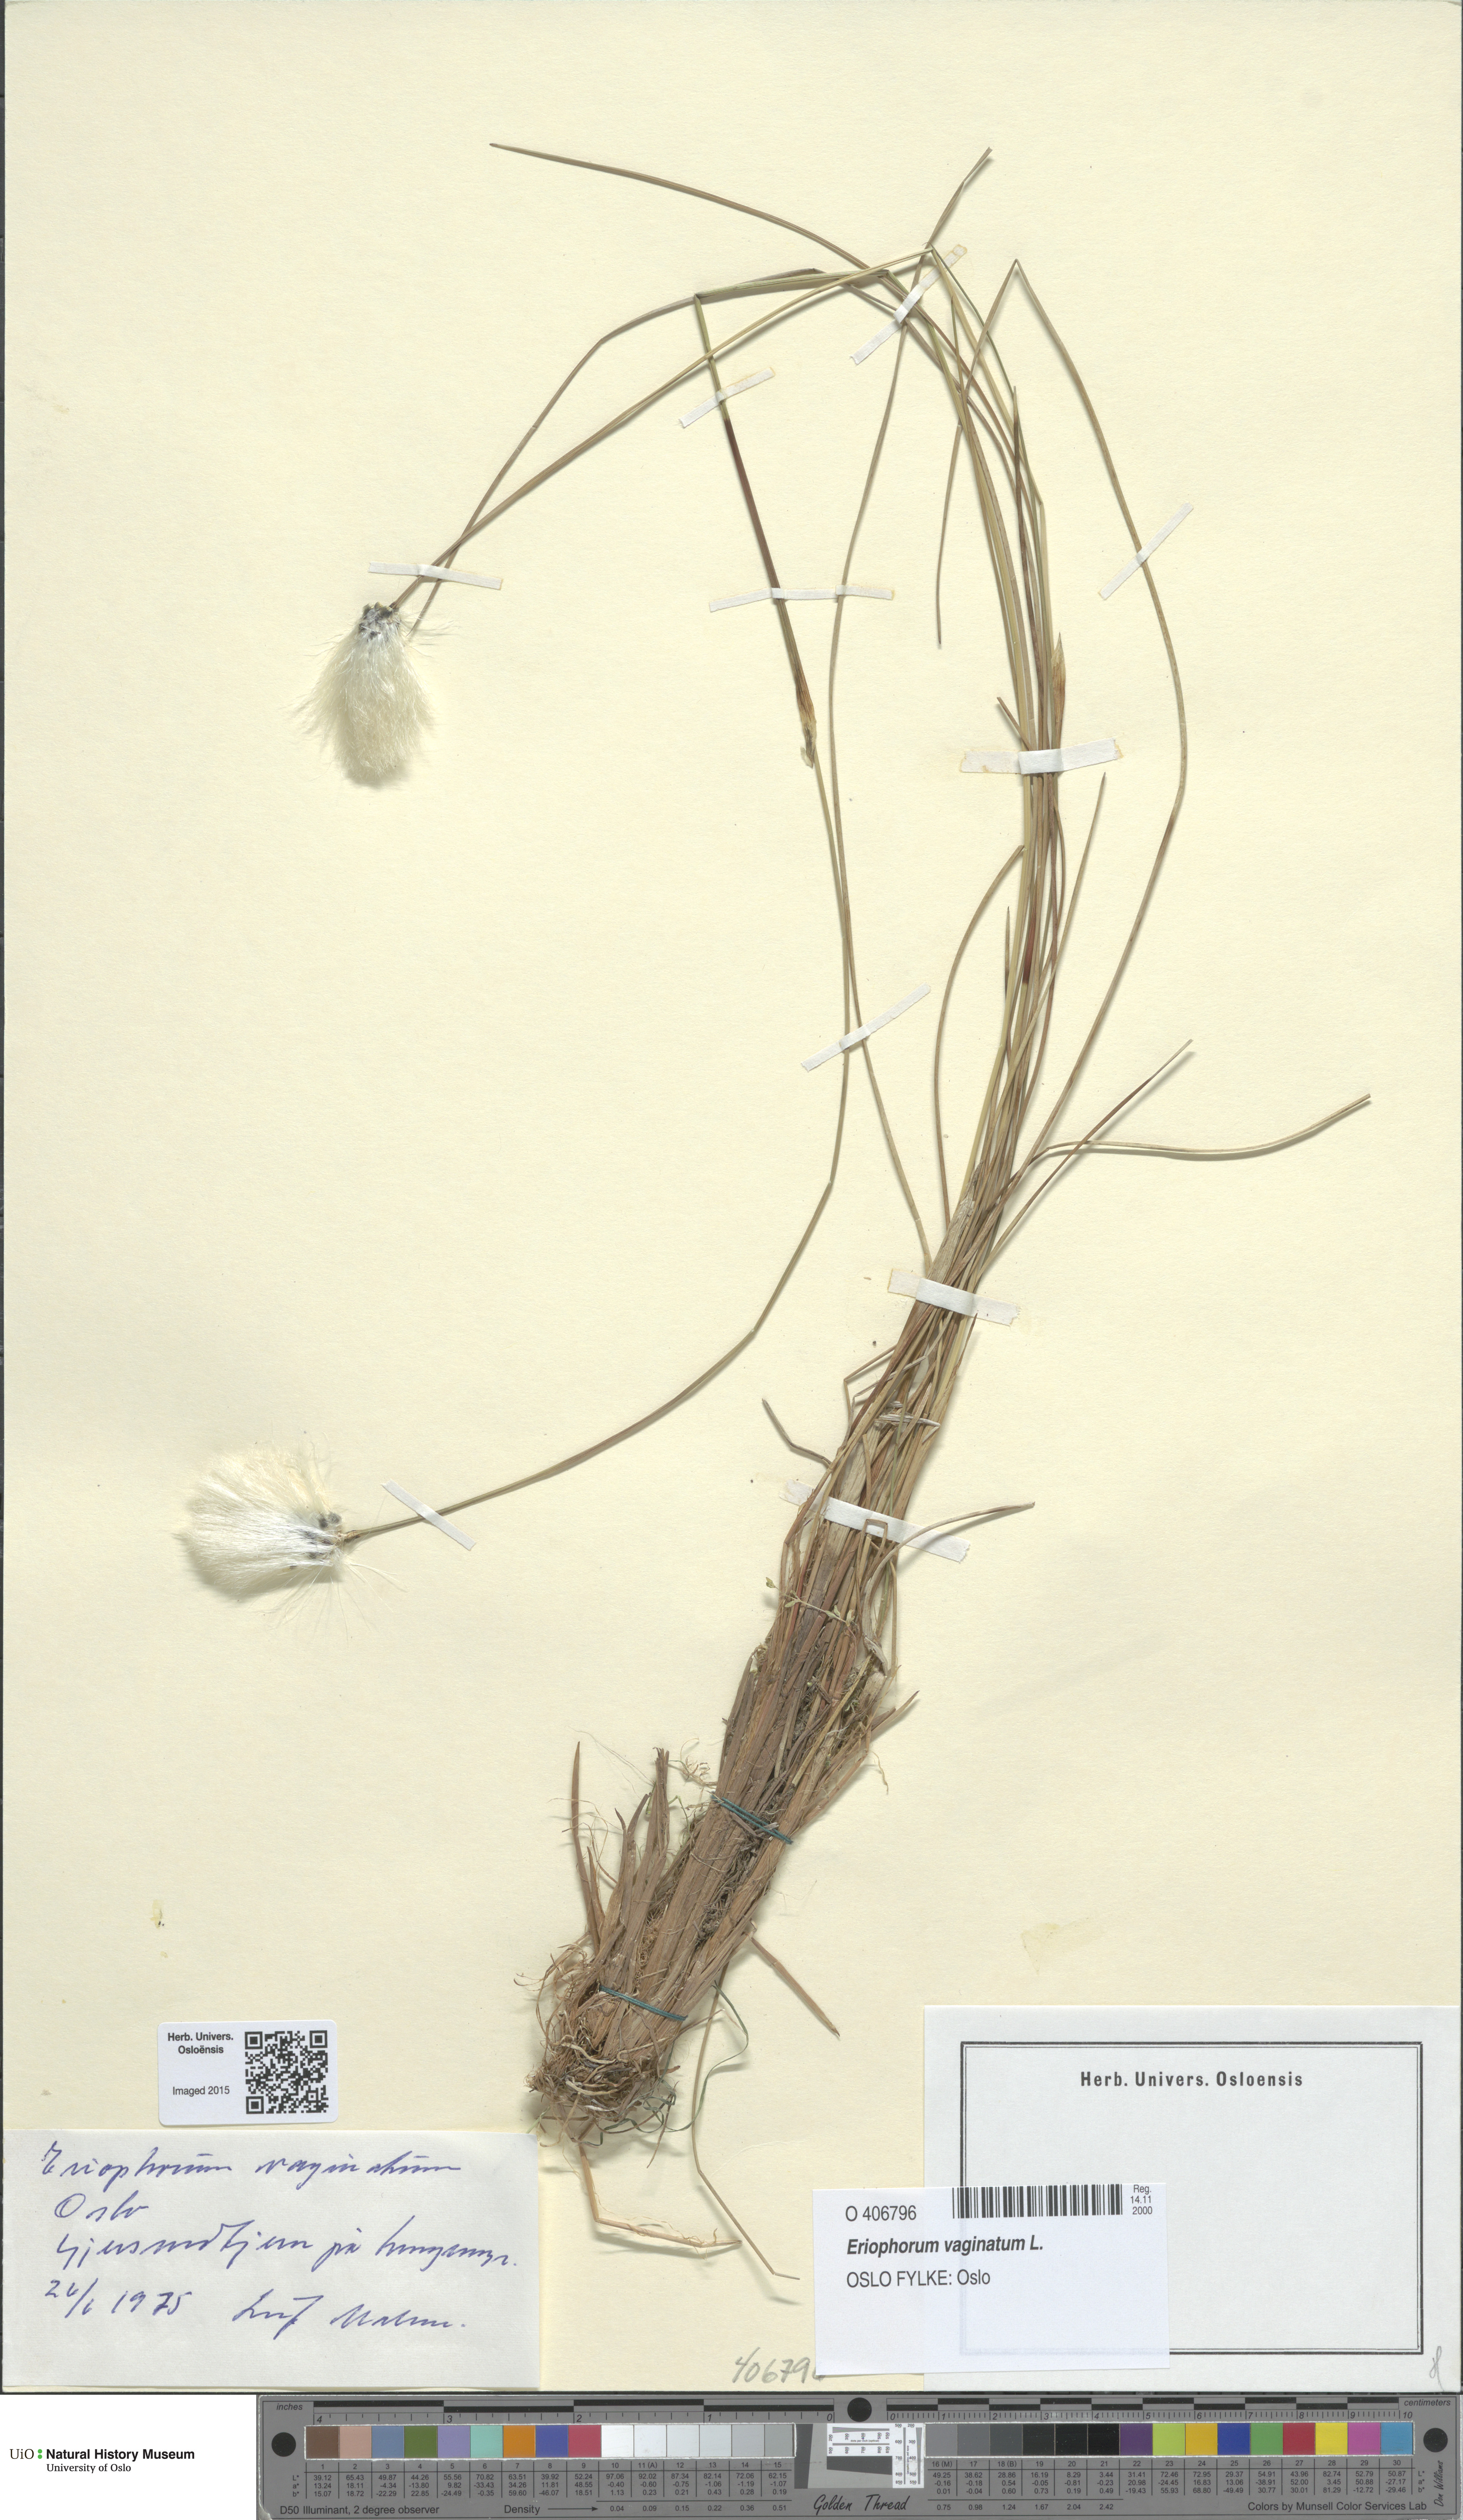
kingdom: Plantae
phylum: Tracheophyta
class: Liliopsida
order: Poales
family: Cyperaceae
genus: Eriophorum
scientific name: Eriophorum vaginatum
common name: Hare's-tail cottongrass
